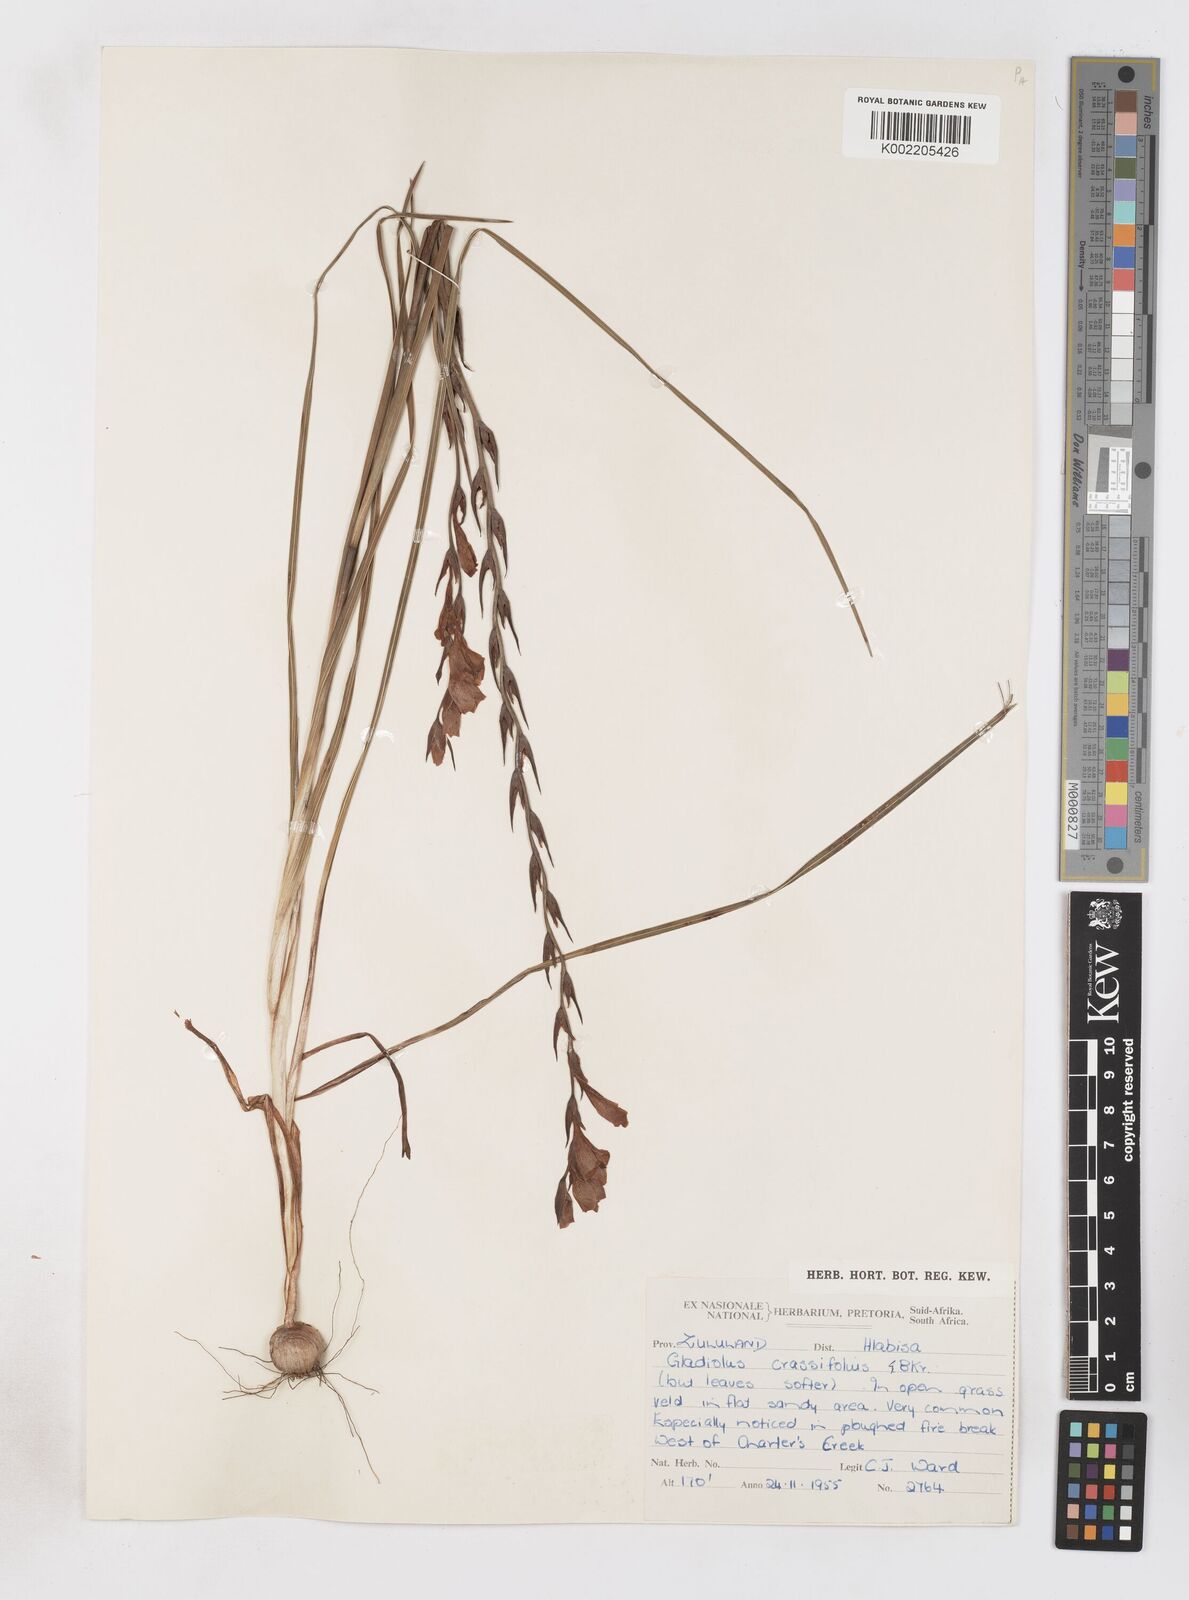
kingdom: Plantae
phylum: Tracheophyta
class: Liliopsida
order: Asparagales
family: Iridaceae
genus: Gladiolus
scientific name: Gladiolus densiflorus
